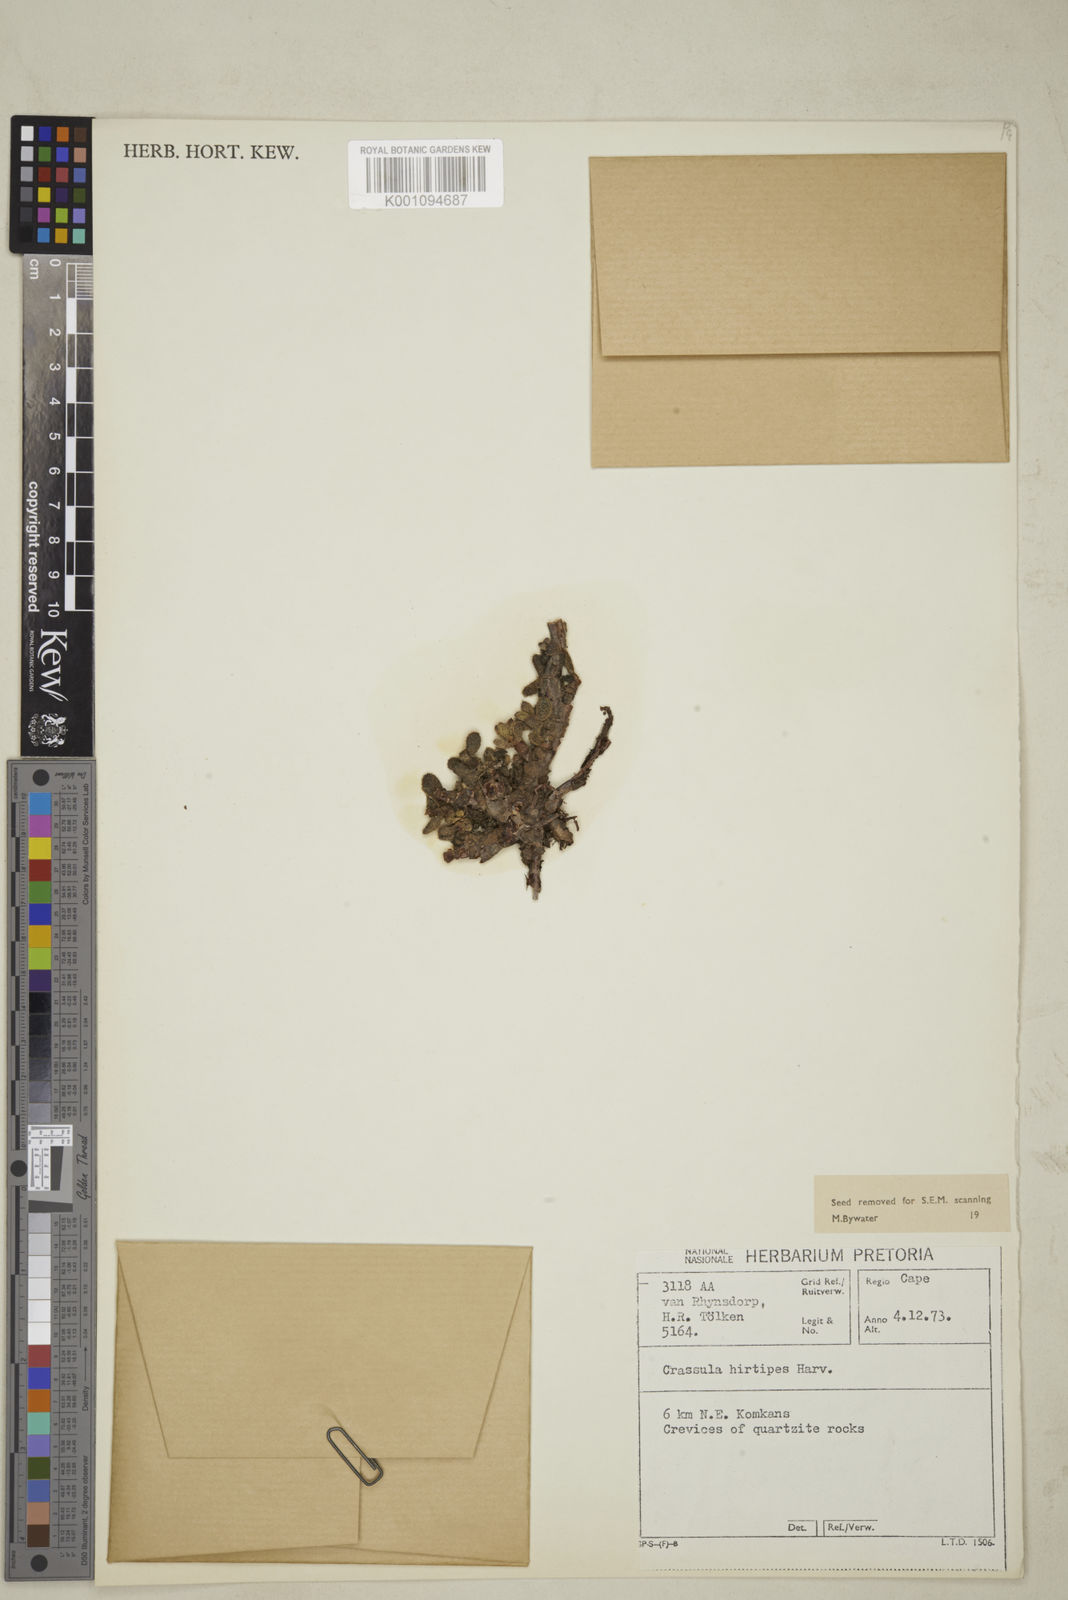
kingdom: Plantae
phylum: Tracheophyta
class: Magnoliopsida
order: Saxifragales
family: Crassulaceae
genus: Crassula
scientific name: Crassula hirtipes
